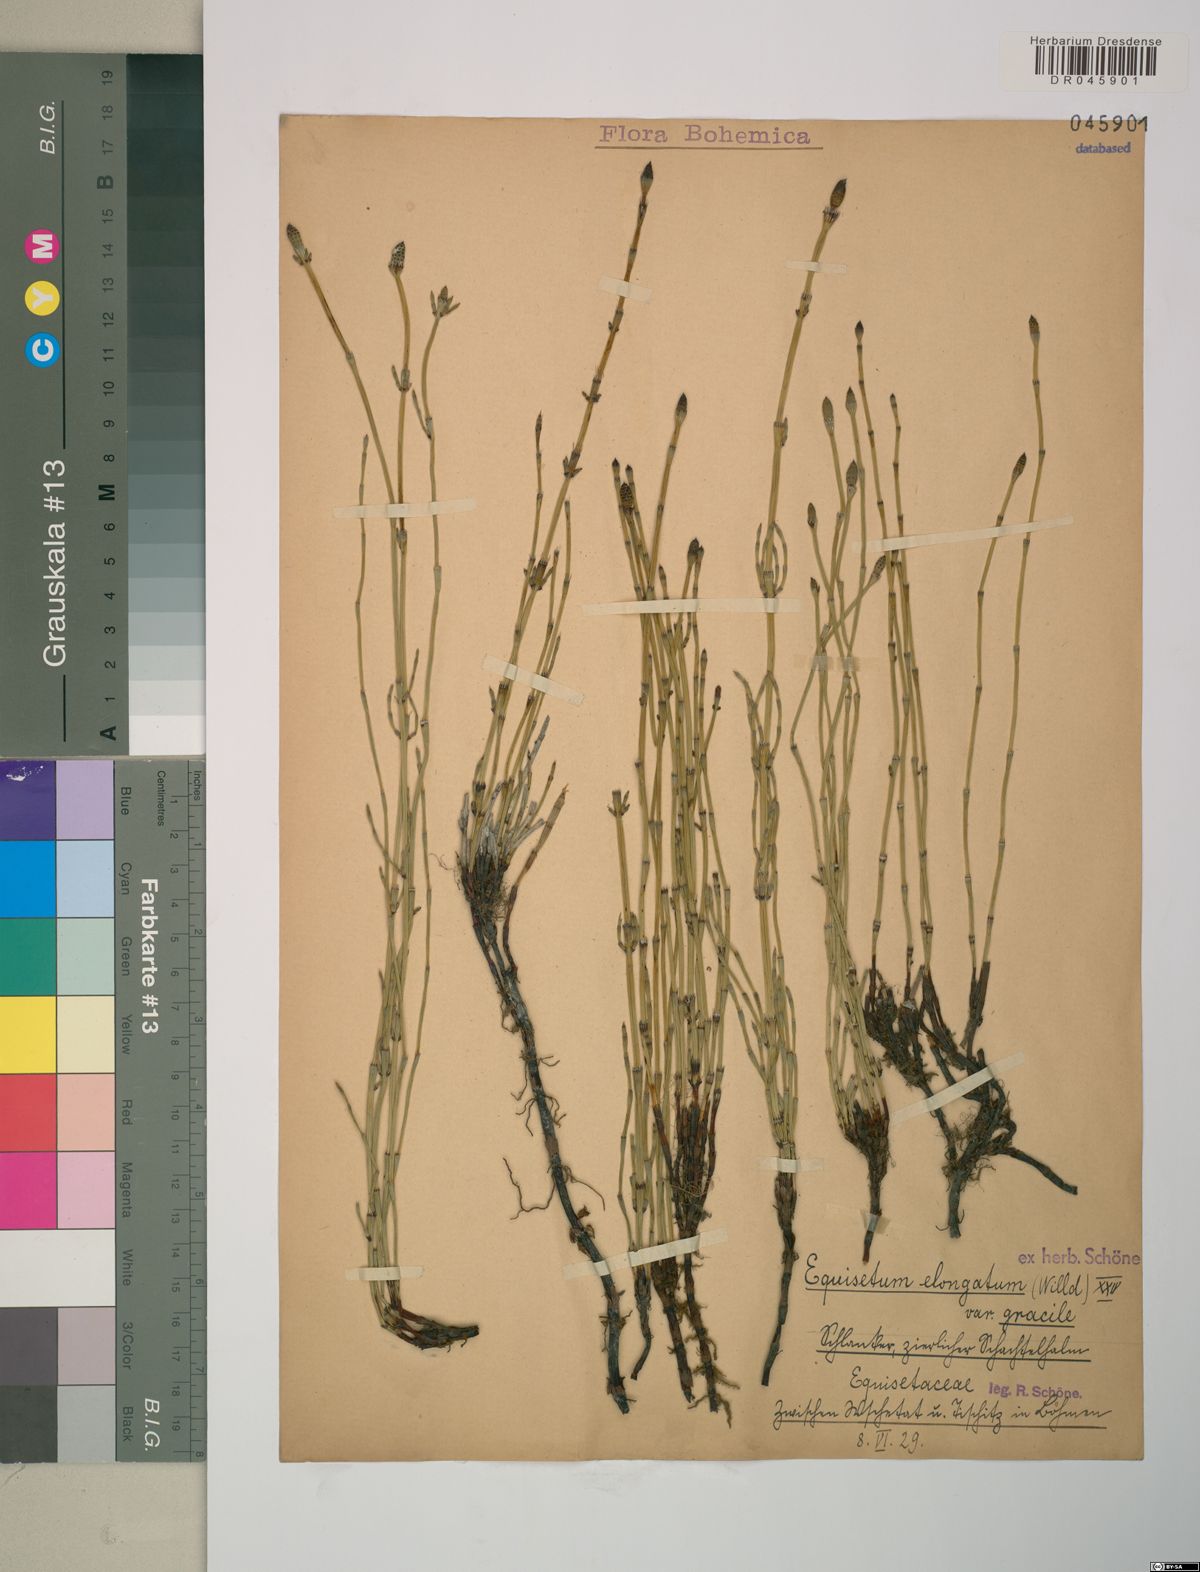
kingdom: Plantae
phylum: Tracheophyta
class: Polypodiopsida
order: Equisetales
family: Equisetaceae
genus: Equisetum
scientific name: Equisetum ramosissimum
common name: Branched horsetail
